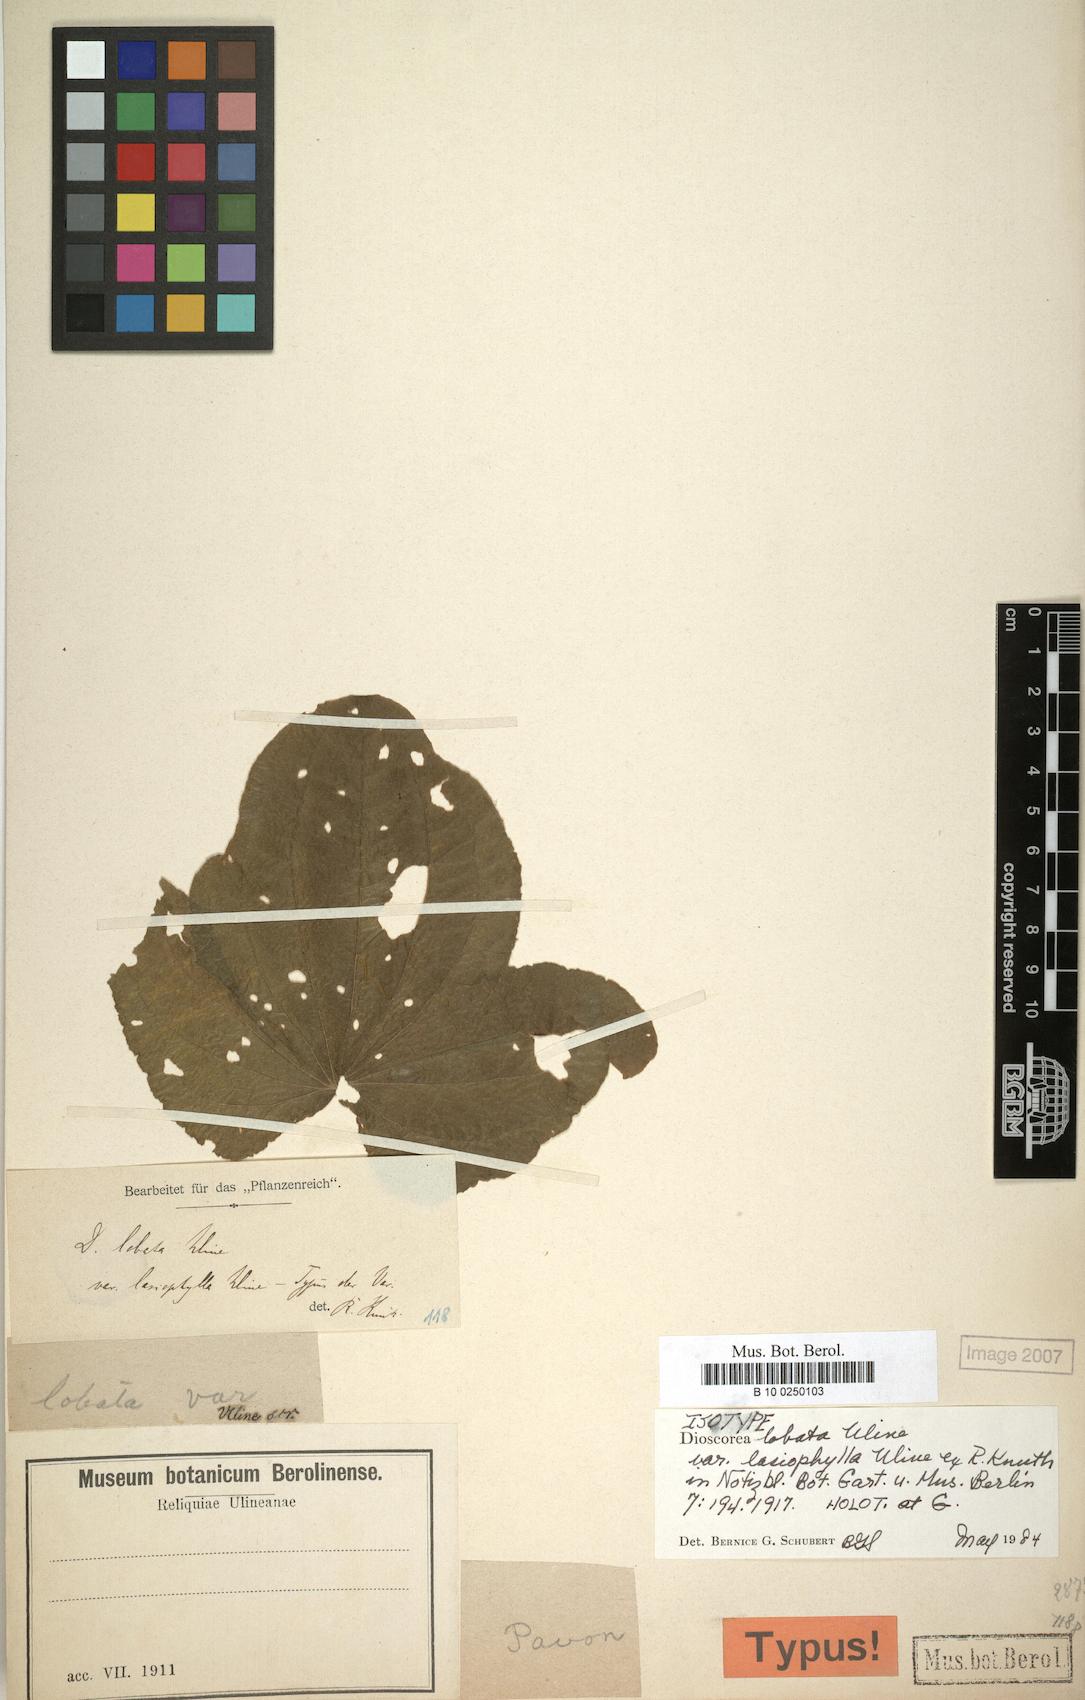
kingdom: Plantae
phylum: Tracheophyta
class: Liliopsida
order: Dioscoreales
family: Dioscoreaceae
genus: Dioscorea
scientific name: Dioscorea galeottiana
